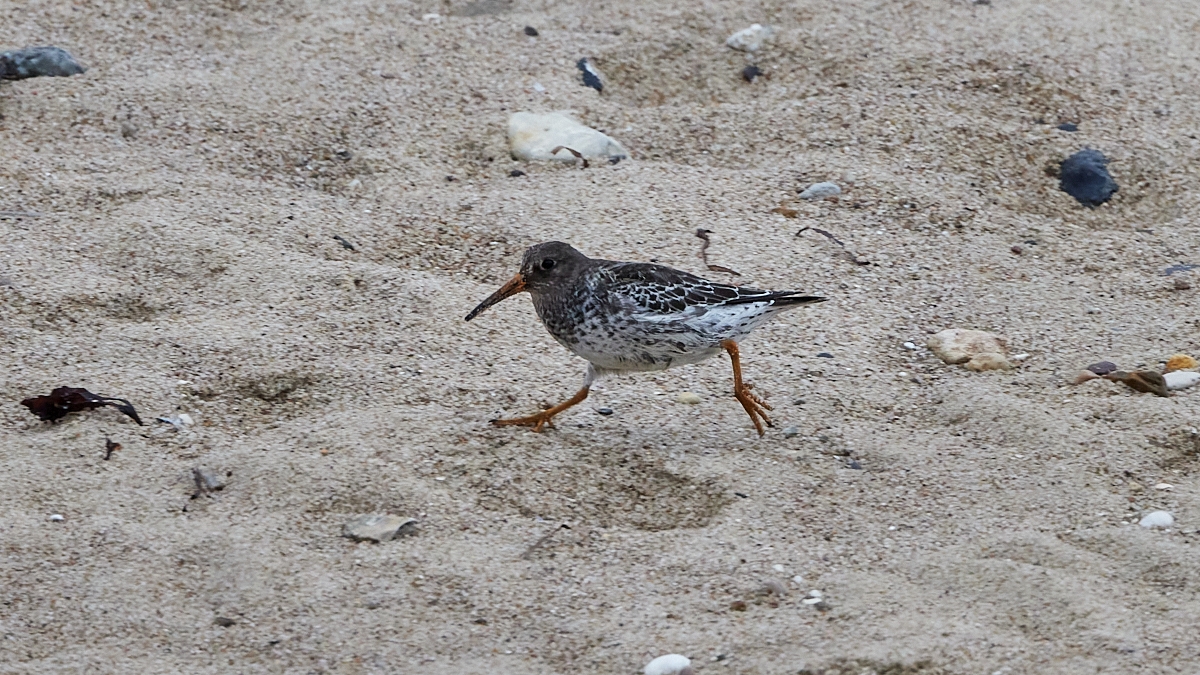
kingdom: Animalia
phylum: Chordata
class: Aves
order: Charadriiformes
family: Scolopacidae
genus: Calidris
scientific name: Calidris maritima
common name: Sortgrå ryle
